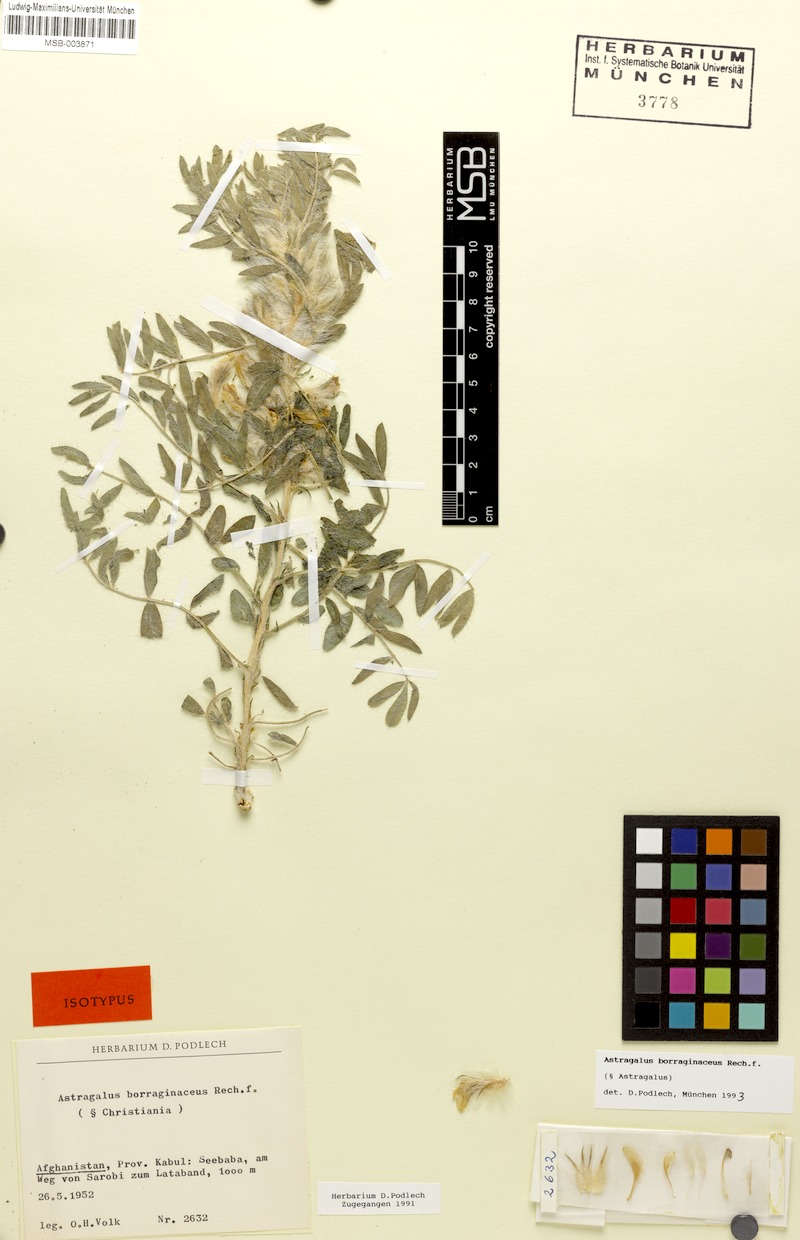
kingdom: Plantae
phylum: Tracheophyta
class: Magnoliopsida
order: Fabales
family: Fabaceae
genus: Astragalus
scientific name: Astragalus borraginaceus
